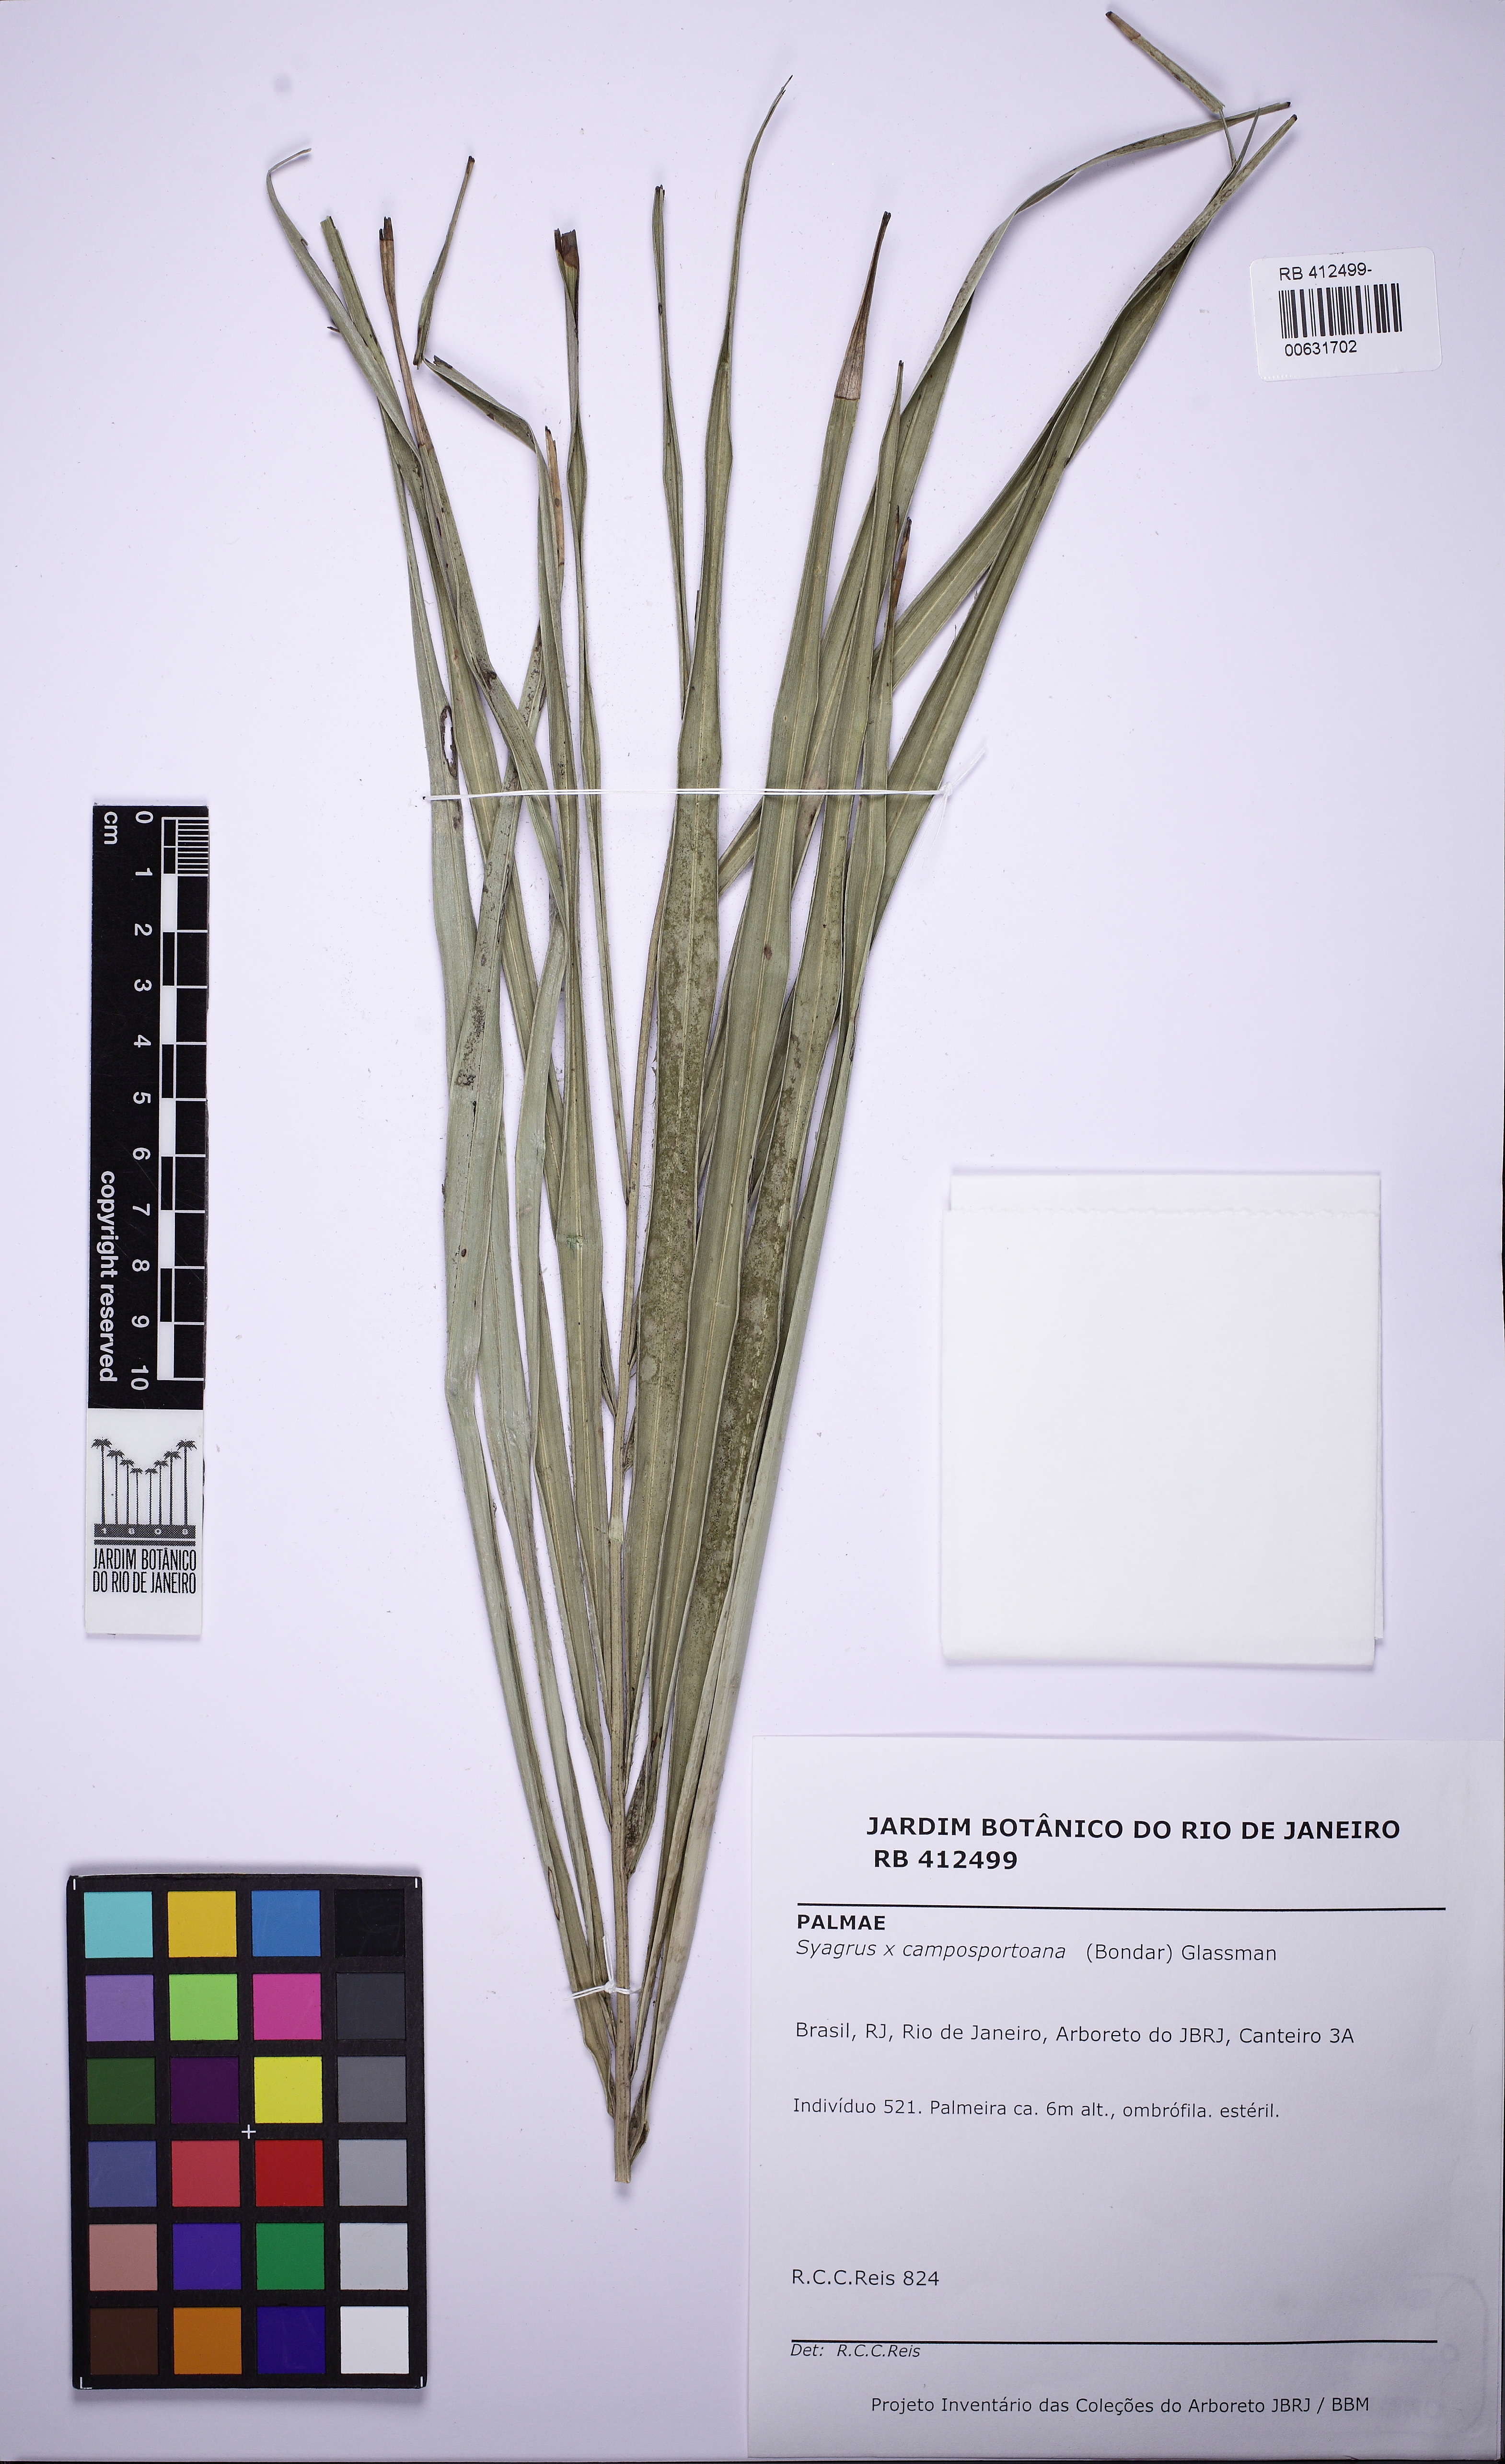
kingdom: Plantae
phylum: Tracheophyta
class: Liliopsida
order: Arecales
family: Arecaceae
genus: Syagrus
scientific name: Syagrus campos-portoana
